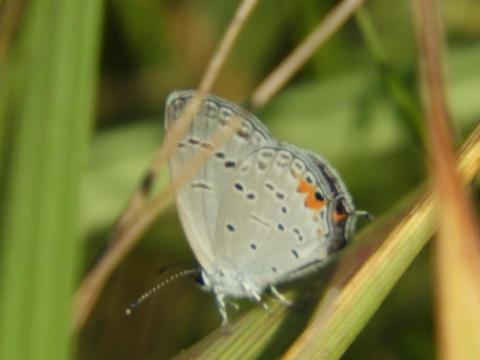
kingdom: Animalia
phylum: Arthropoda
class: Insecta
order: Lepidoptera
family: Lycaenidae
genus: Elkalyce
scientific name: Elkalyce comyntas
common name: Eastern Tailed-Blue
